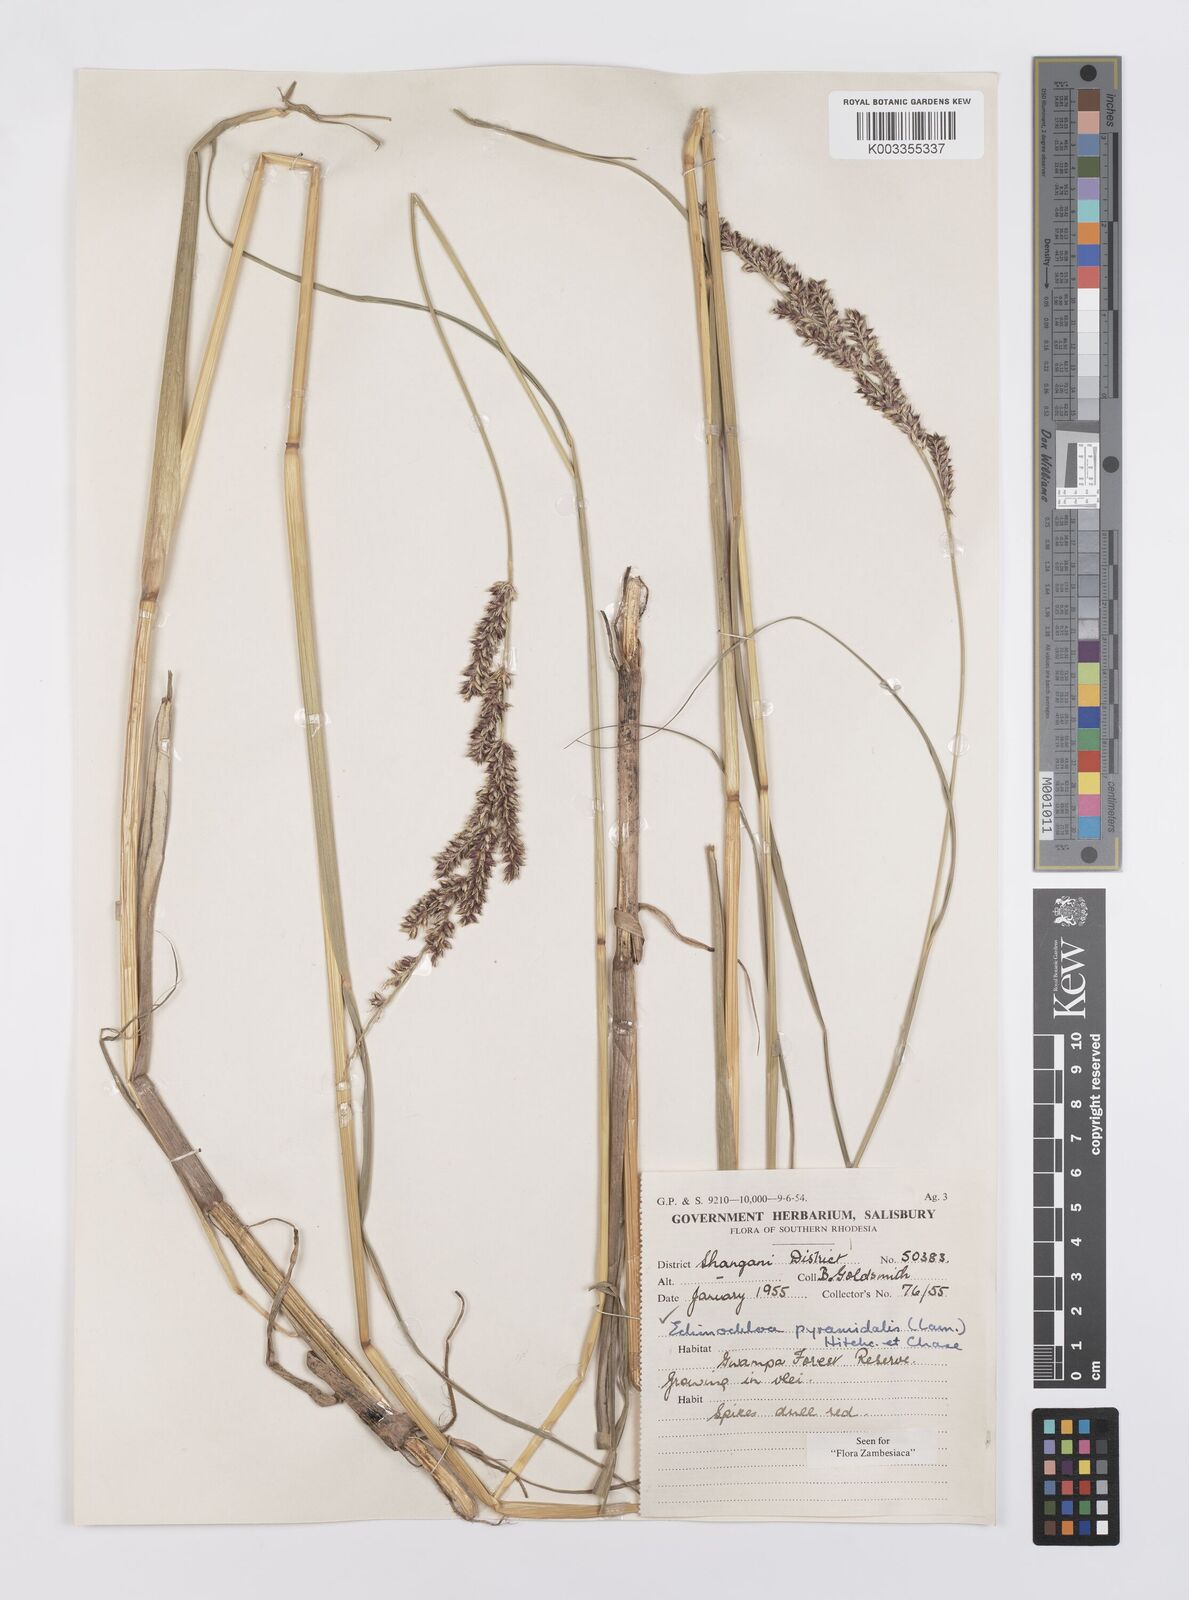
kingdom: Plantae
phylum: Tracheophyta
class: Liliopsida
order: Poales
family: Poaceae
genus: Echinochloa
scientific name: Echinochloa pyramidalis
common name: Antelope grass
